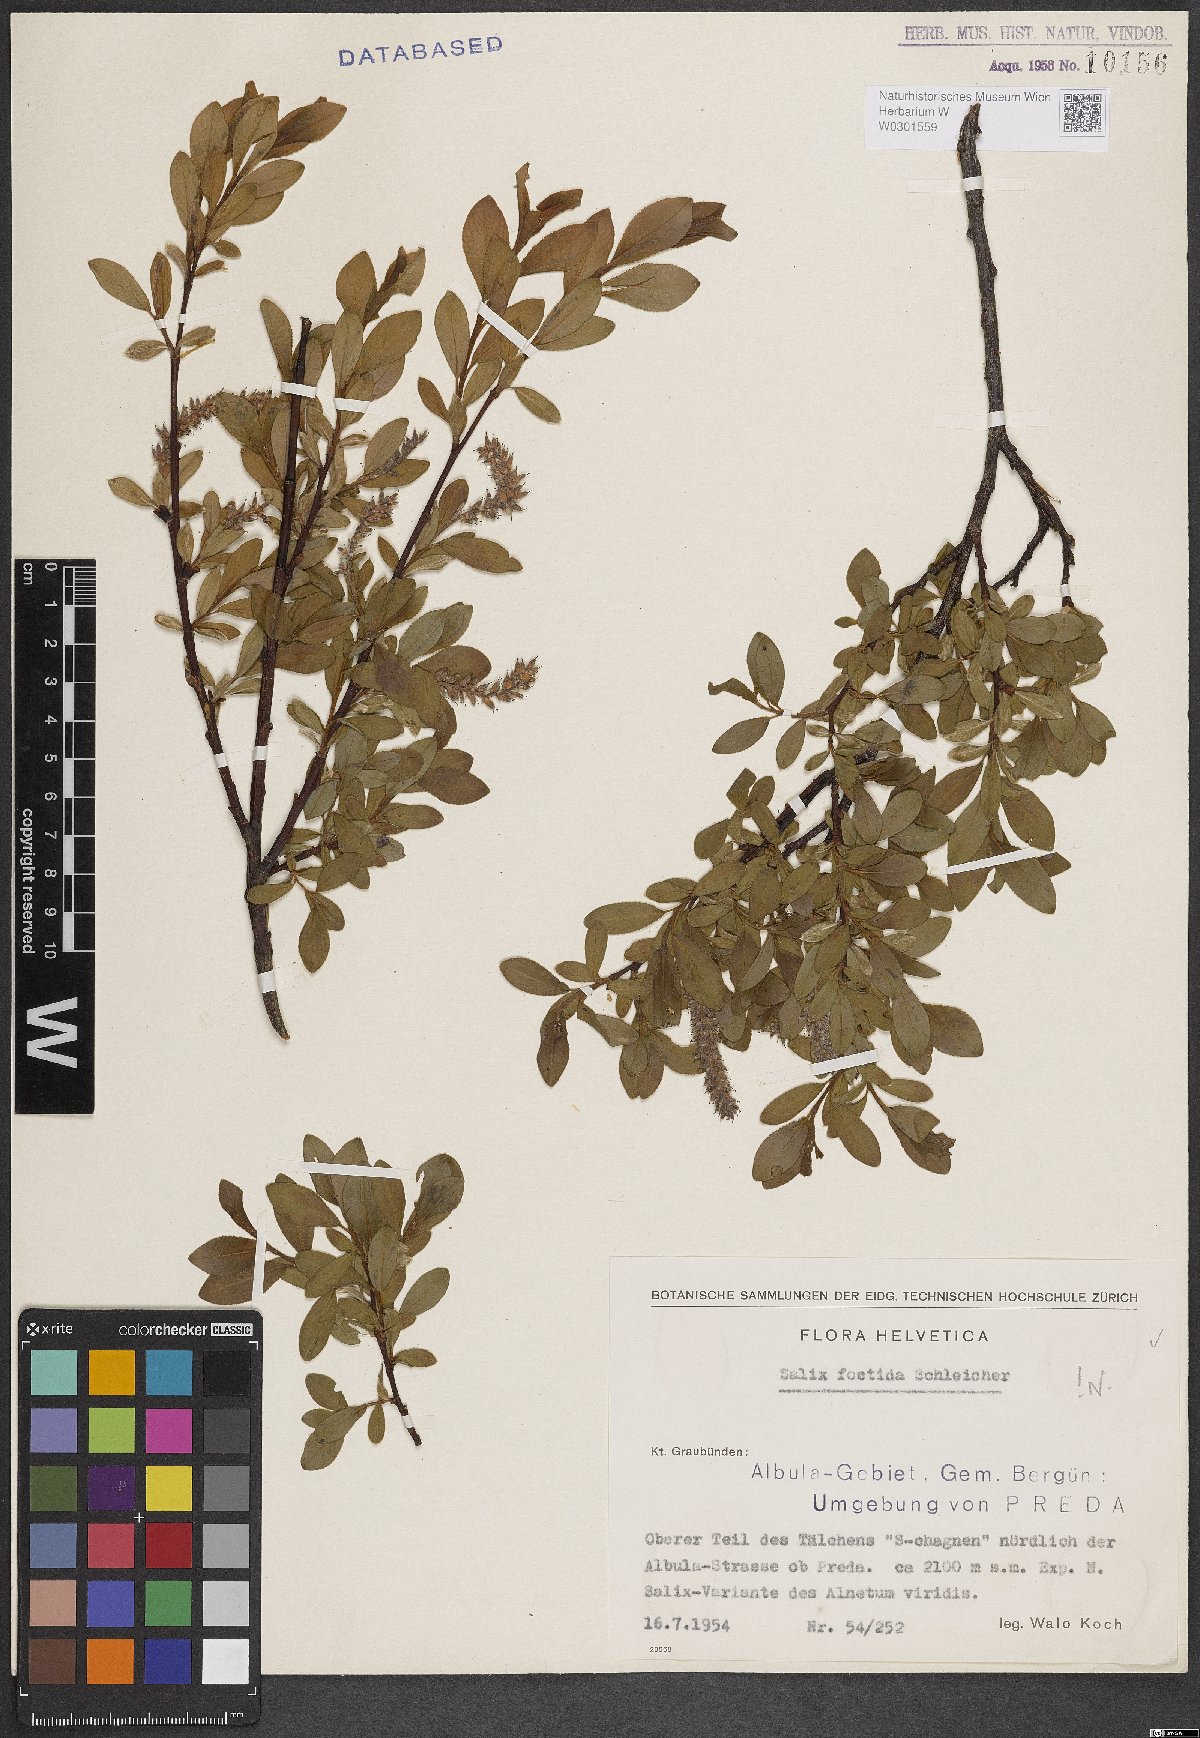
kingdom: Plantae
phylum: Tracheophyta
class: Magnoliopsida
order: Malpighiales
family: Salicaceae
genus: Salix
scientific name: Salix foetida
